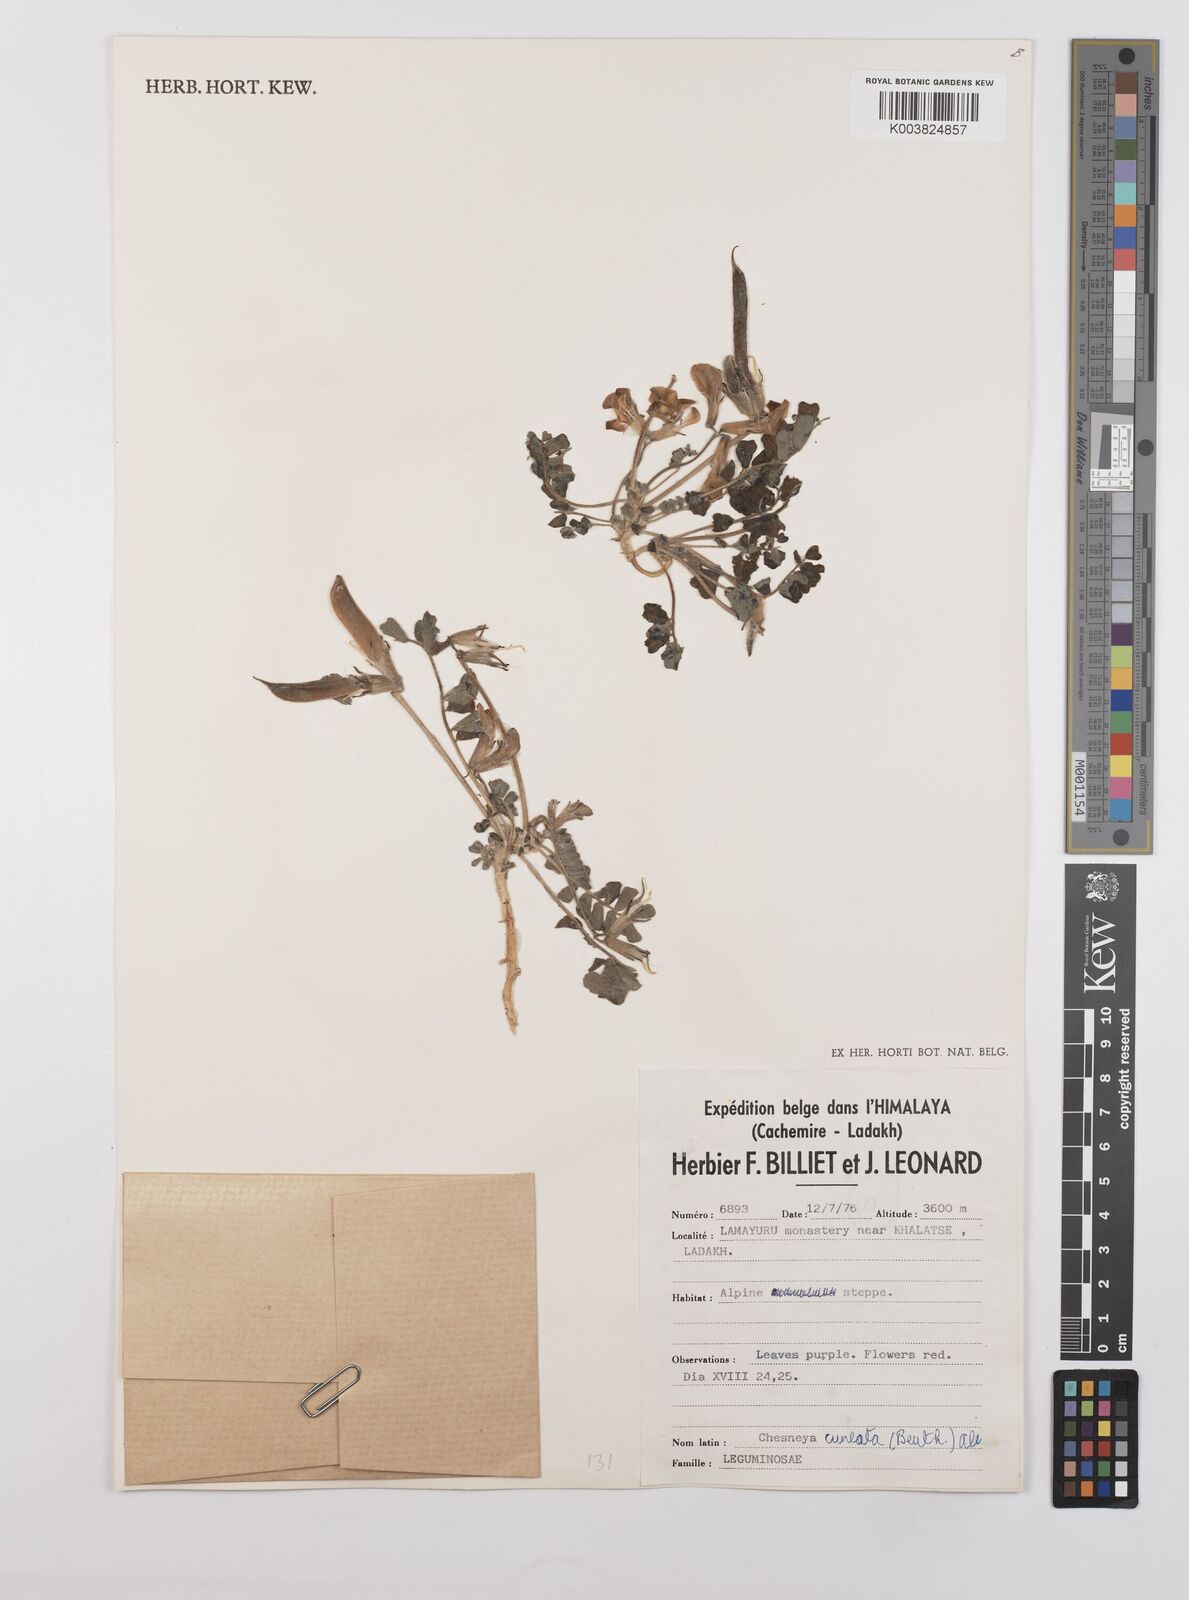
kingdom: Plantae
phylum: Tracheophyta
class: Magnoliopsida
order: Fabales
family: Fabaceae
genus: Chesneya
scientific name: Chesneya cuneata
